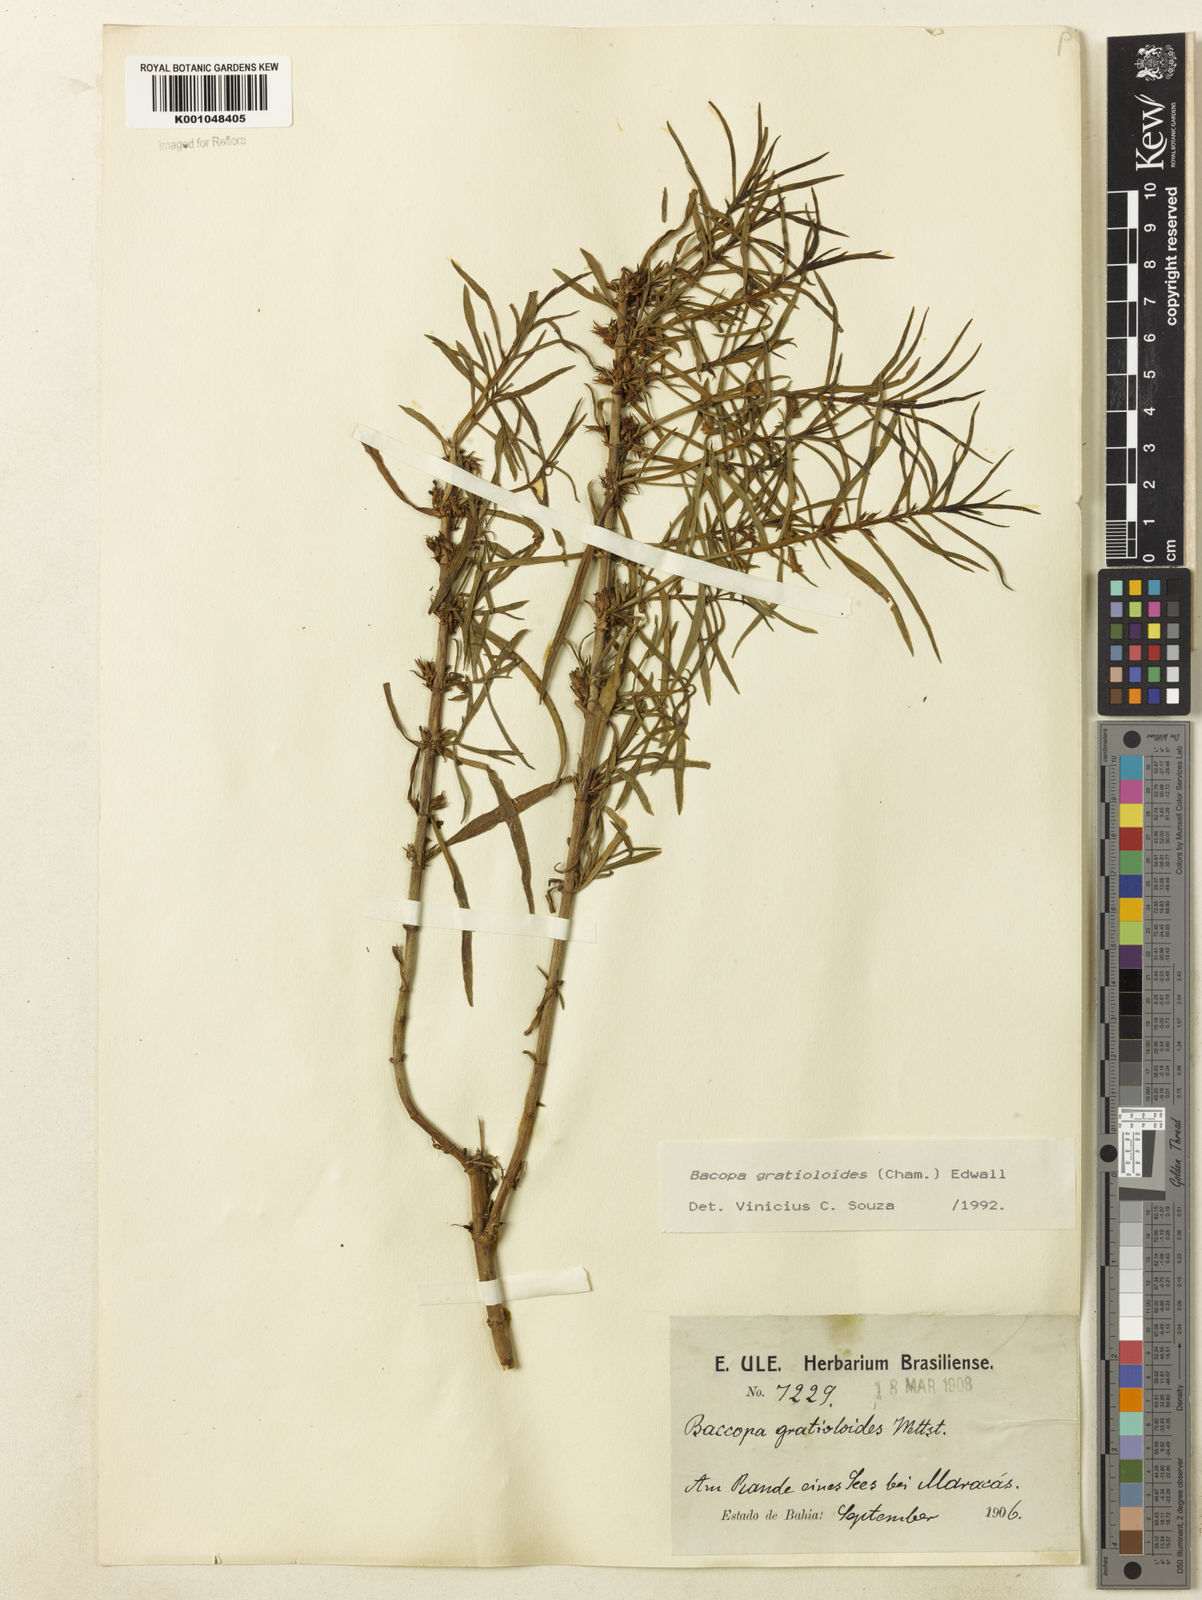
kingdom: Plantae
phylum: Tracheophyta
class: Magnoliopsida
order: Lamiales
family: Plantaginaceae
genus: Bacopa
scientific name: Bacopa
